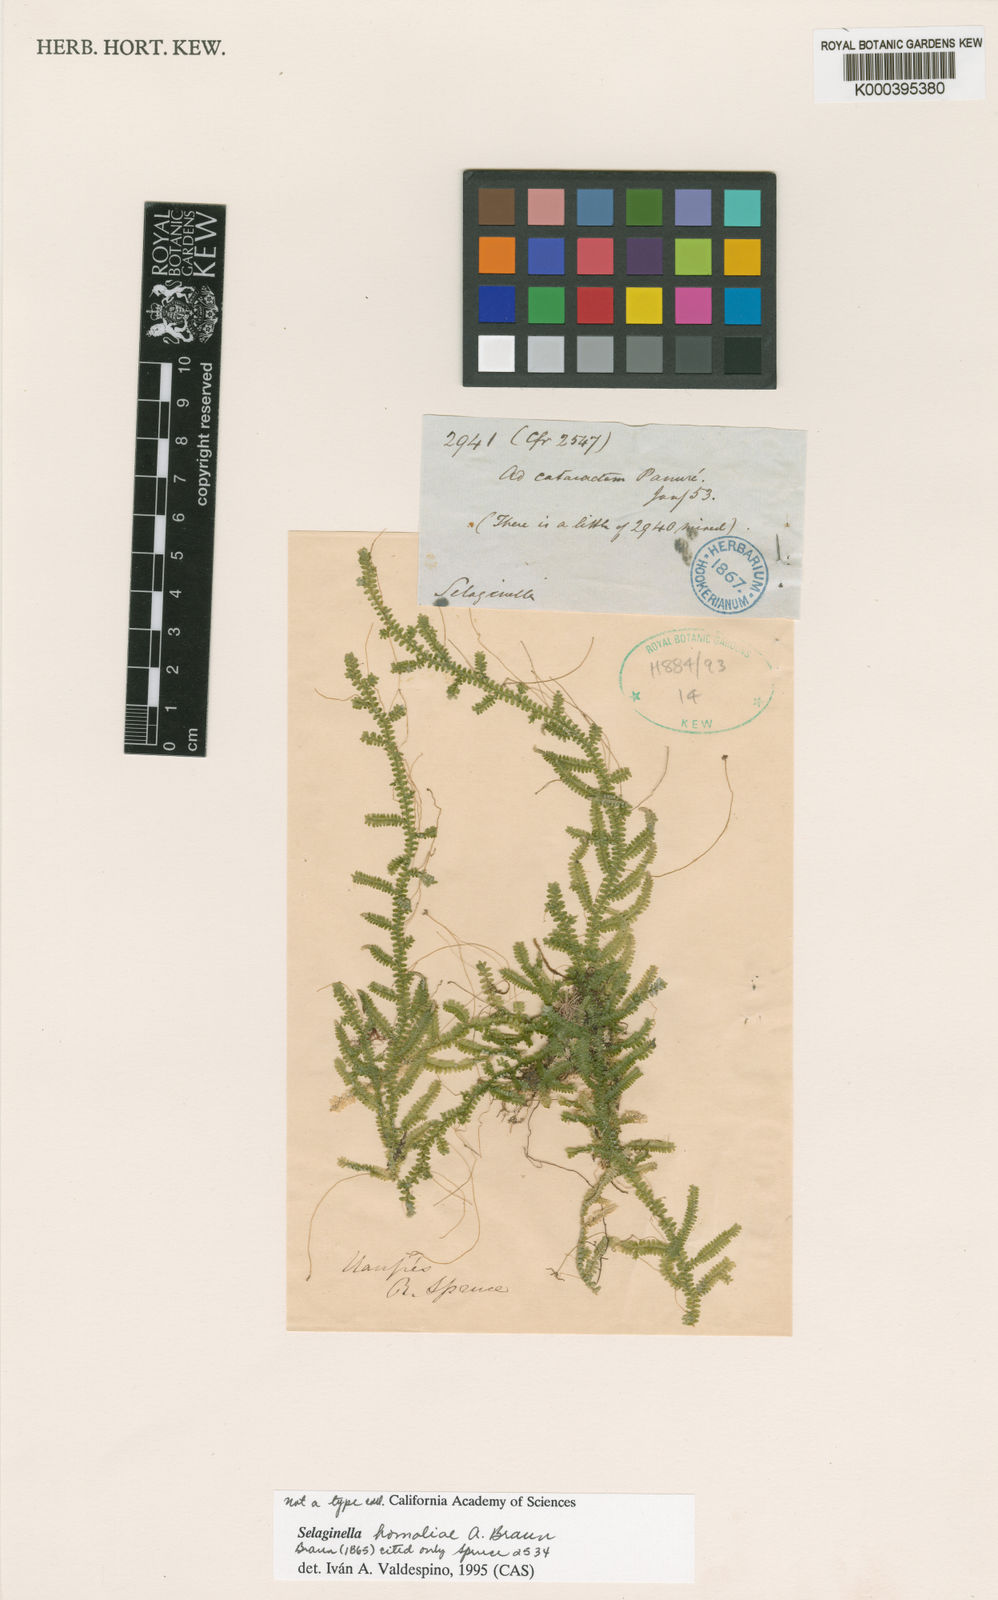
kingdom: Plantae
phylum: Tracheophyta
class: Lycopodiopsida
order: Selaginellales
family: Selaginellaceae
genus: Selaginella
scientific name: Selaginella homaliae
